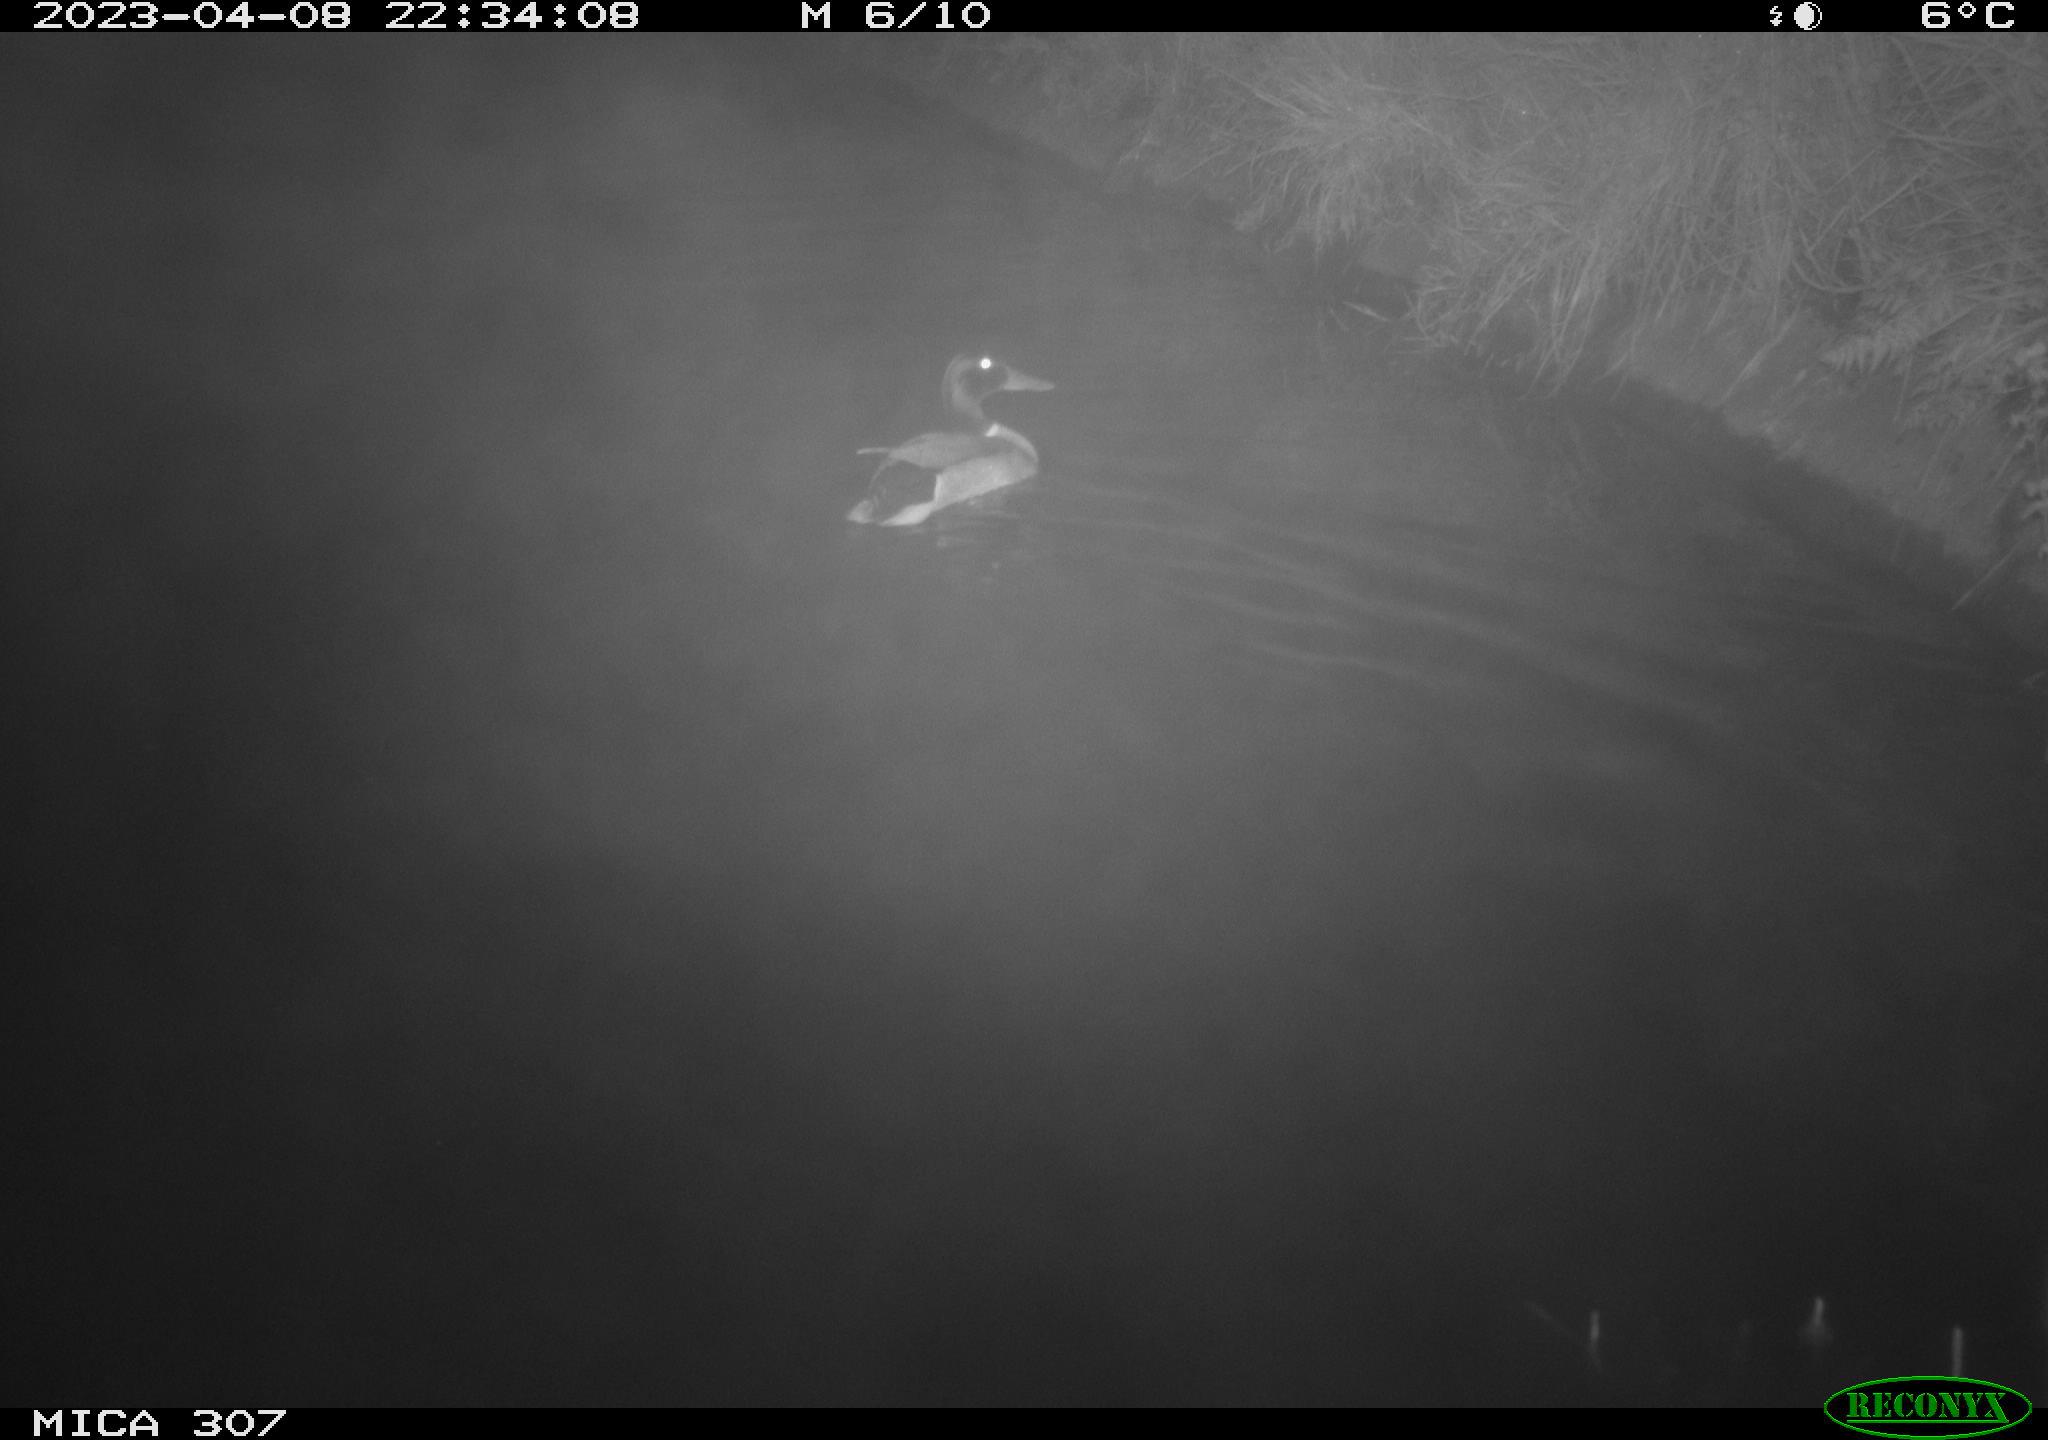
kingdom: Animalia
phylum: Chordata
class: Mammalia
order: Rodentia
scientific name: Rodentia
